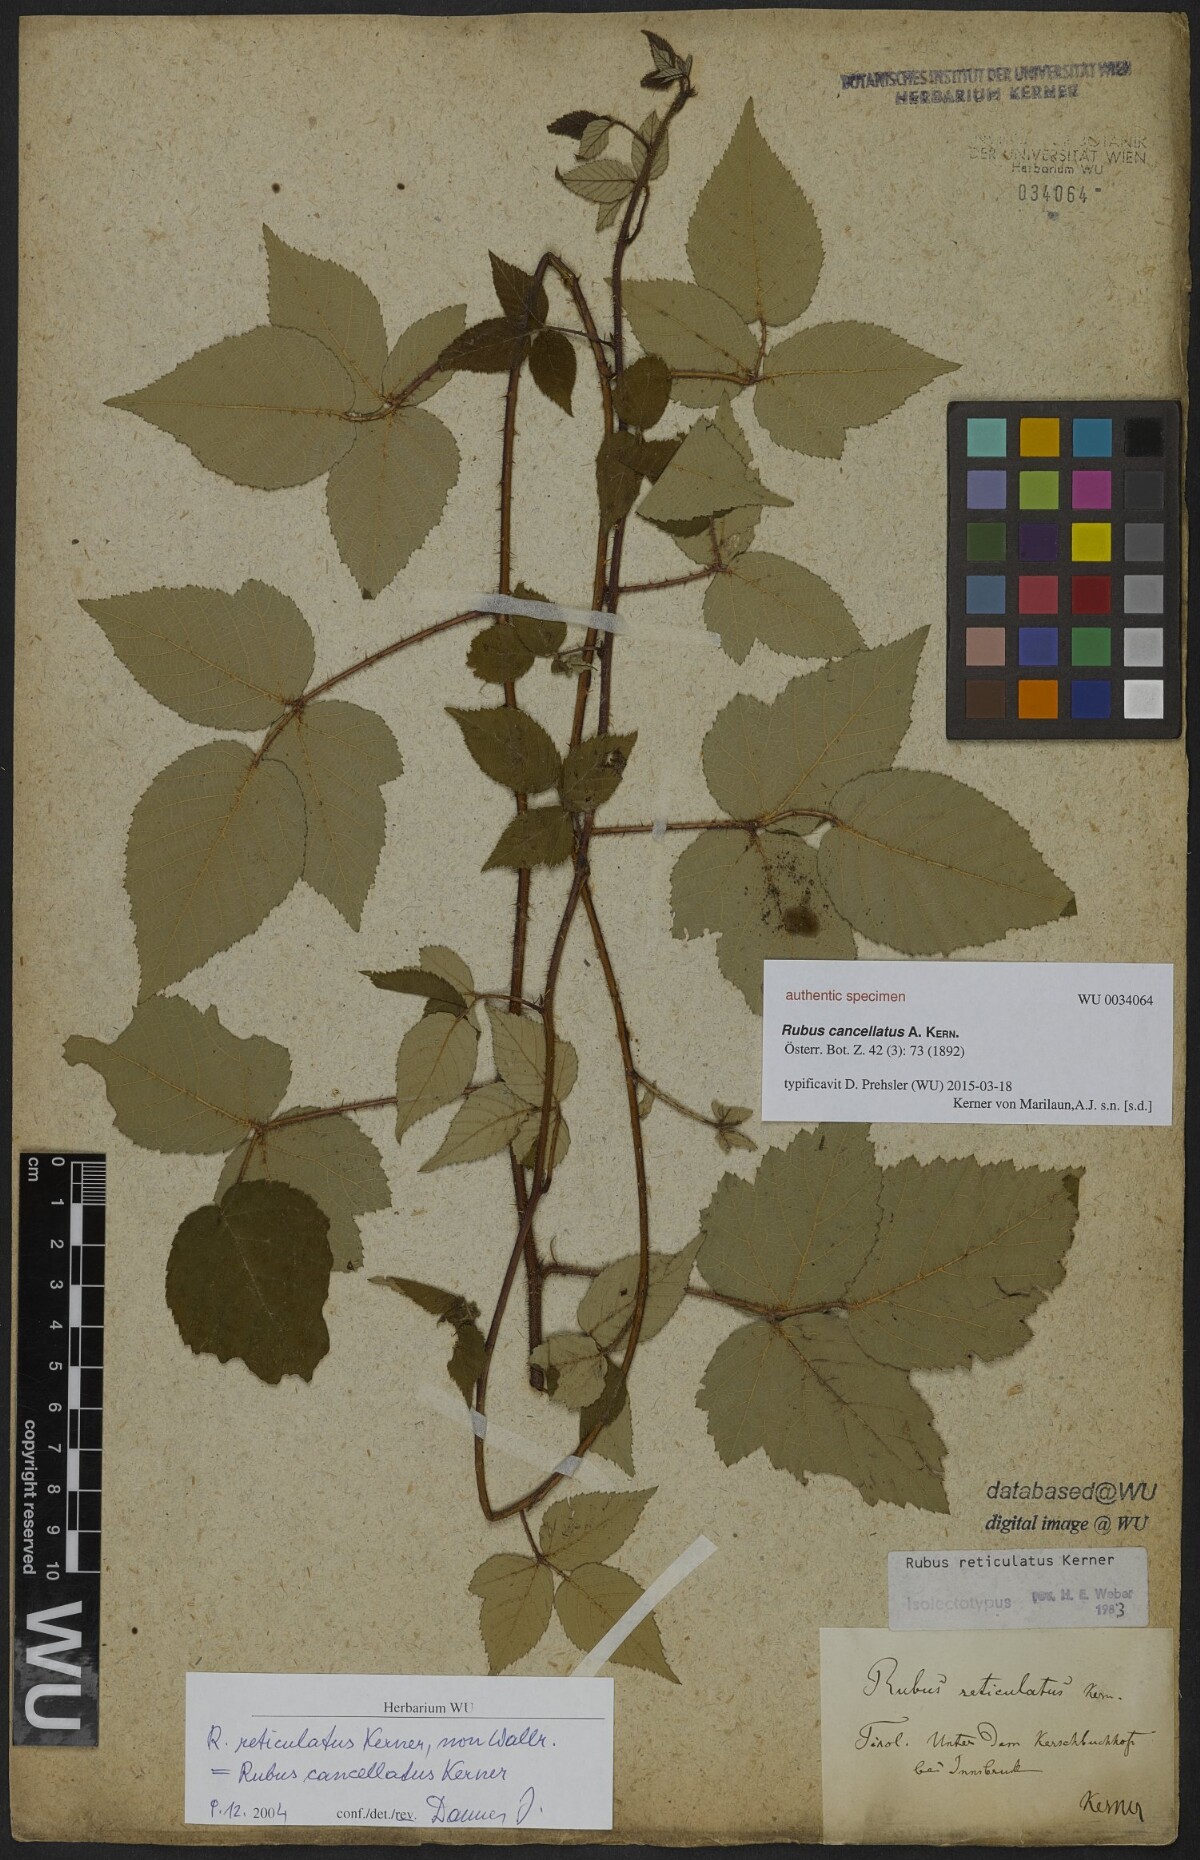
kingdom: Plantae
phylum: Tracheophyta
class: Magnoliopsida
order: Rosales
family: Rosaceae
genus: Rubus
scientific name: Rubus reticulatus
